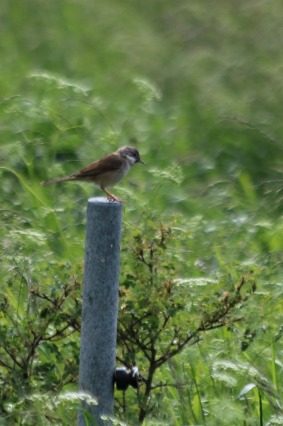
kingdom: Animalia
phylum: Chordata
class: Aves
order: Passeriformes
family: Sylviidae
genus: Sylvia
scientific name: Sylvia communis
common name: Tornsanger
